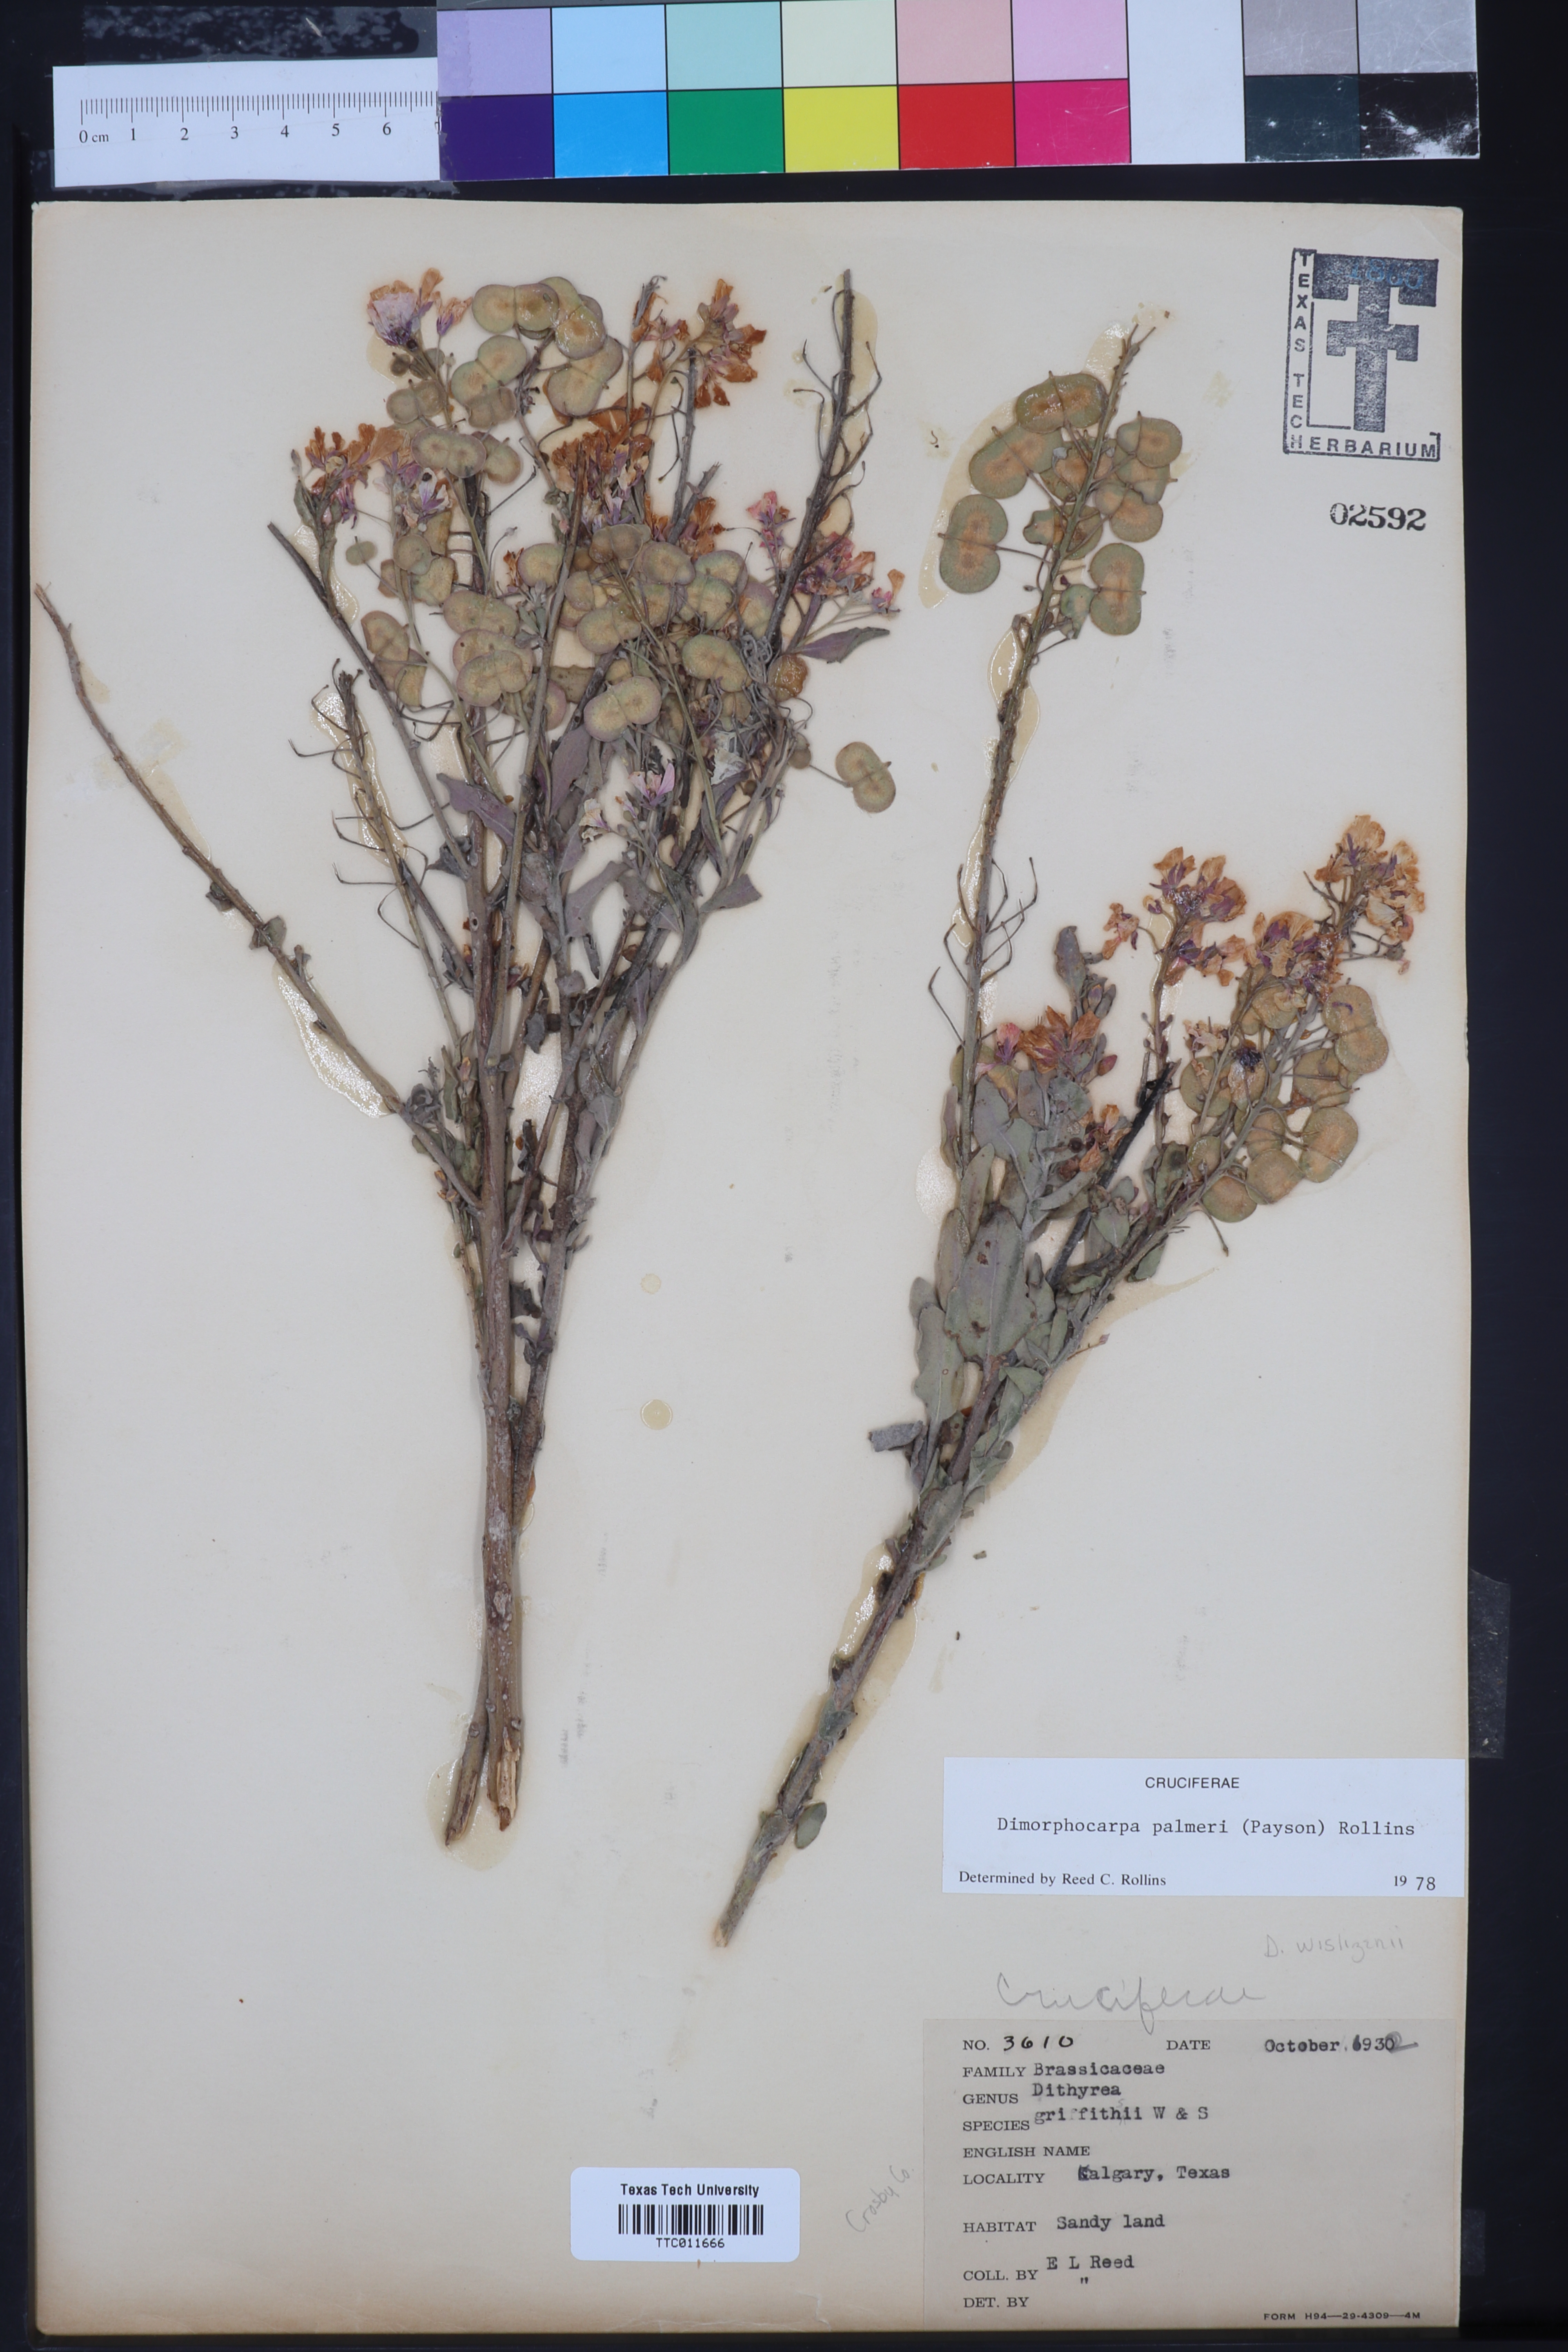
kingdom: Plantae
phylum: Tracheophyta
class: Magnoliopsida
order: Brassicales
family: Brassicaceae
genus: Dimorphocarpa
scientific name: Dimorphocarpa candicans
